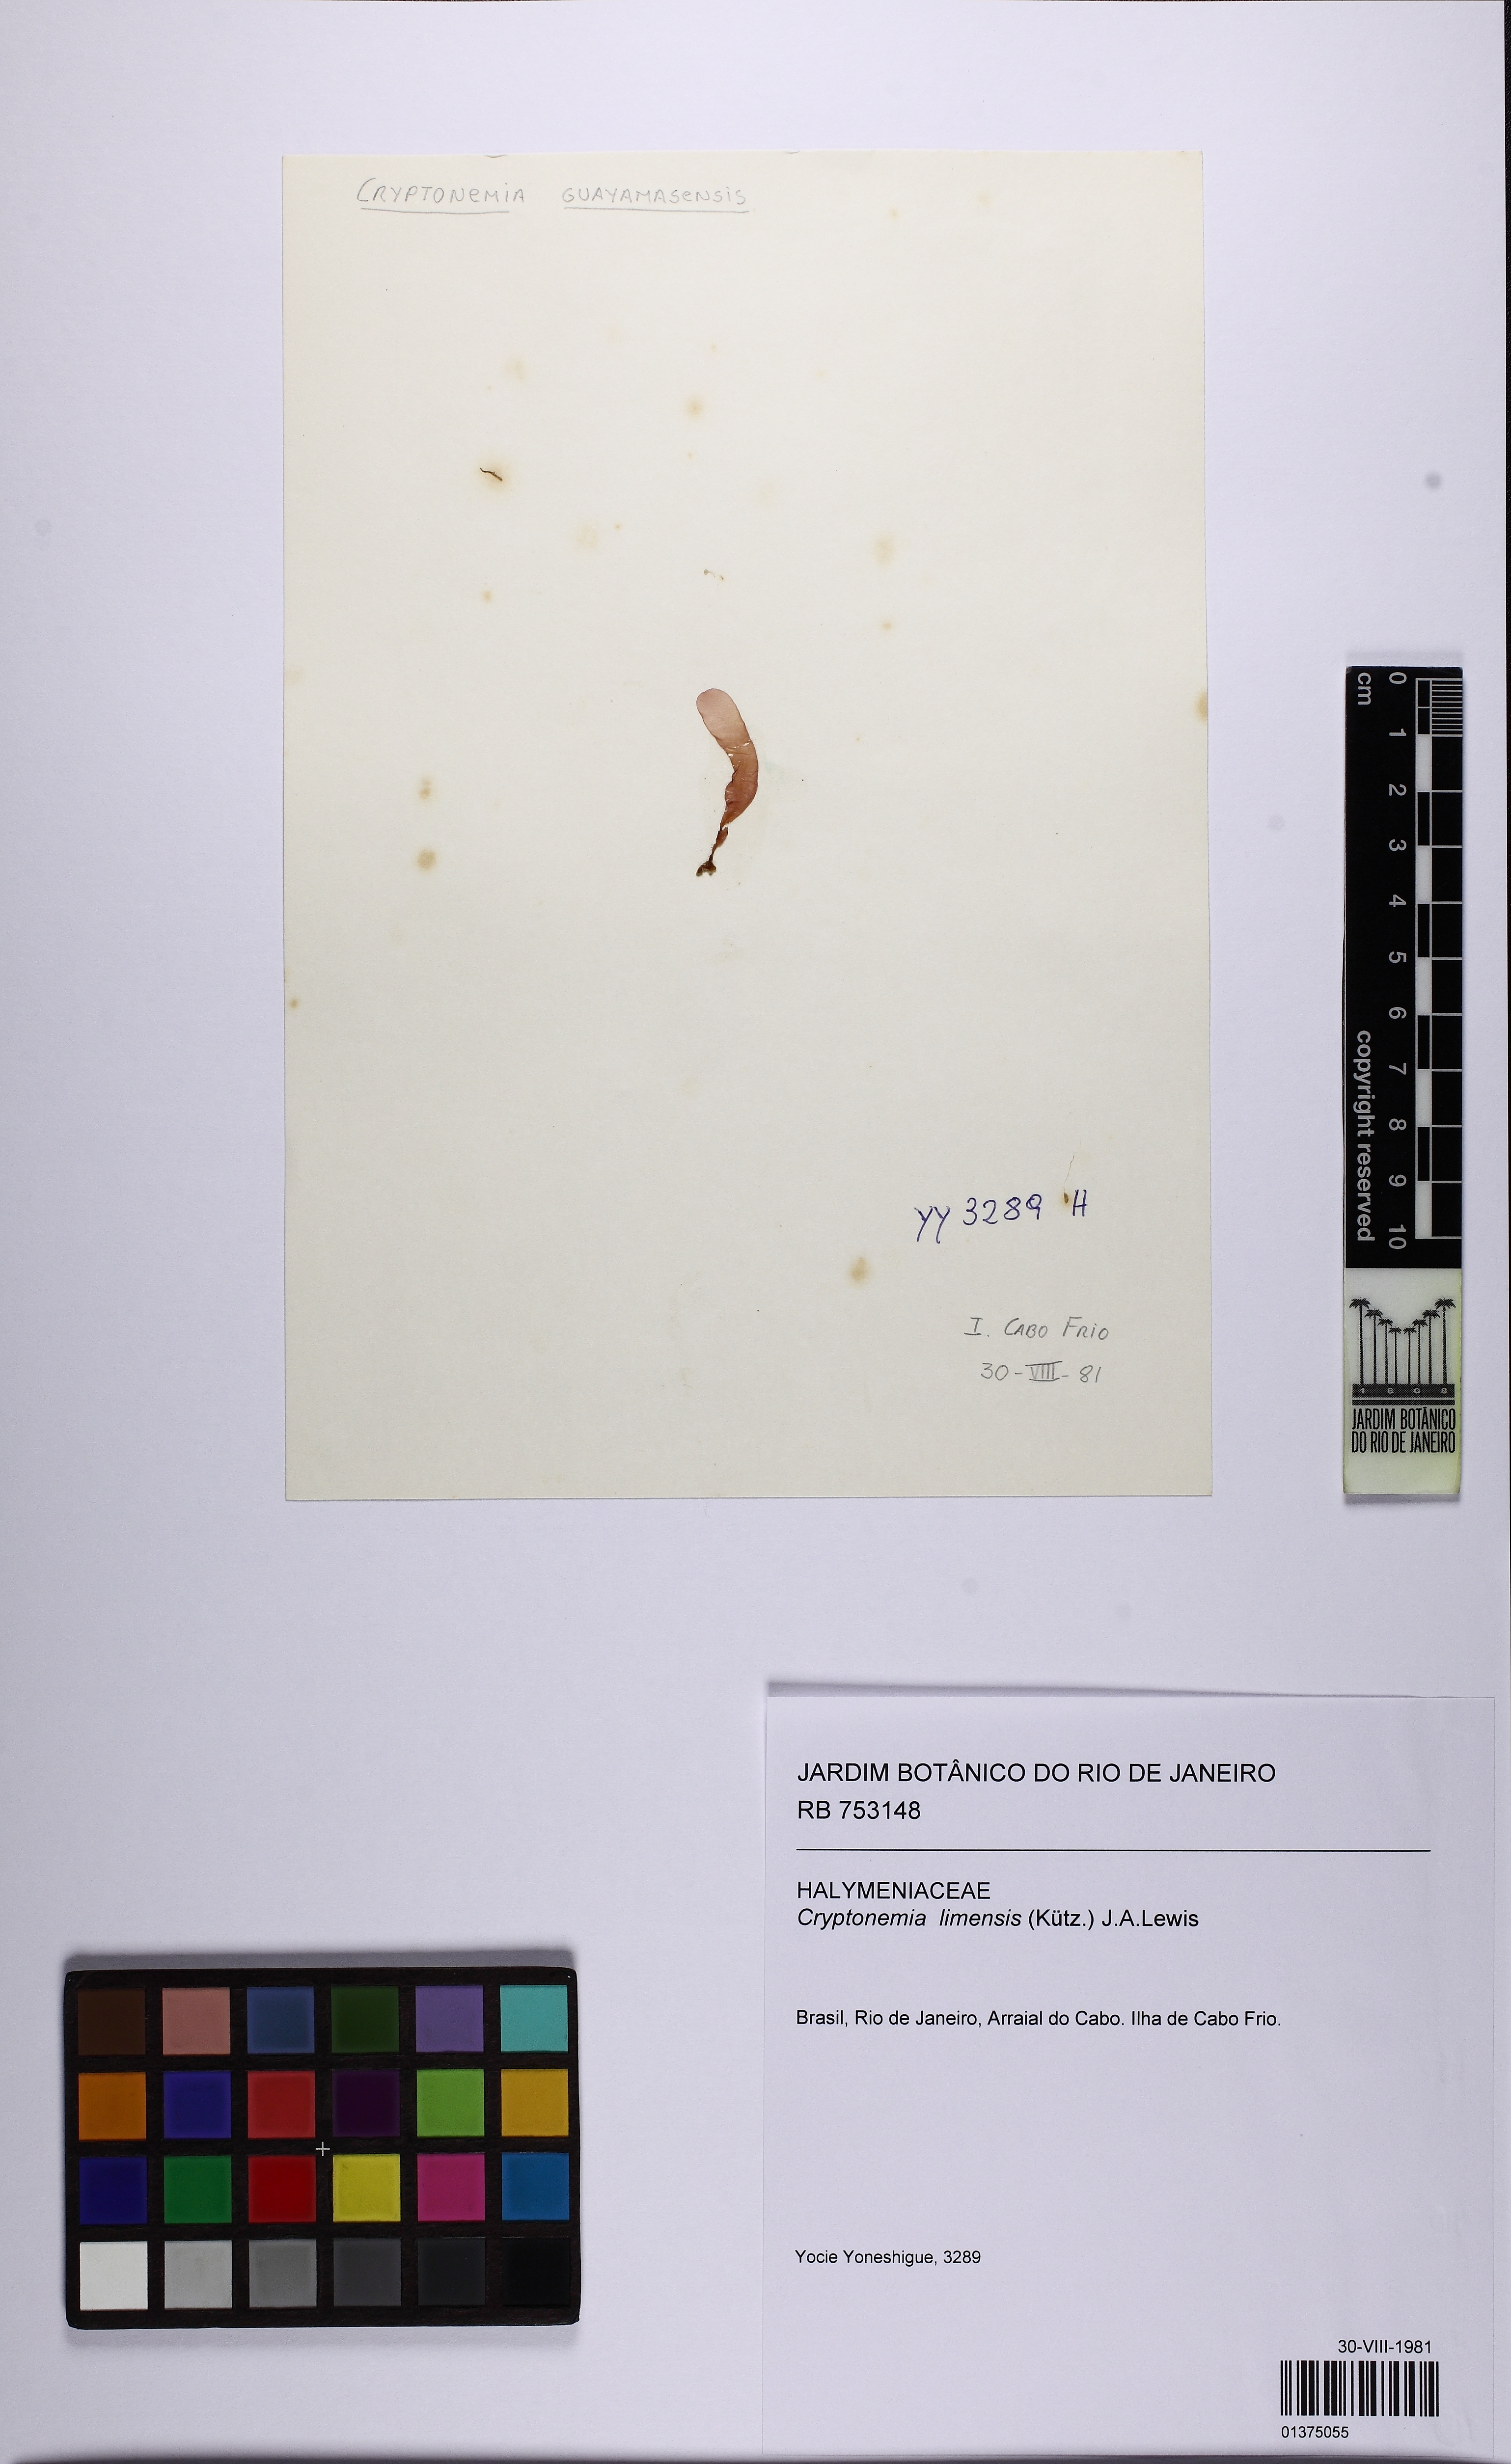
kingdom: Plantae
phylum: Rhodophyta
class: Florideophyceae
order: Halymeniales
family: Halymeniaceae
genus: Cryptonemia
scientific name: Cryptonemia limensis
